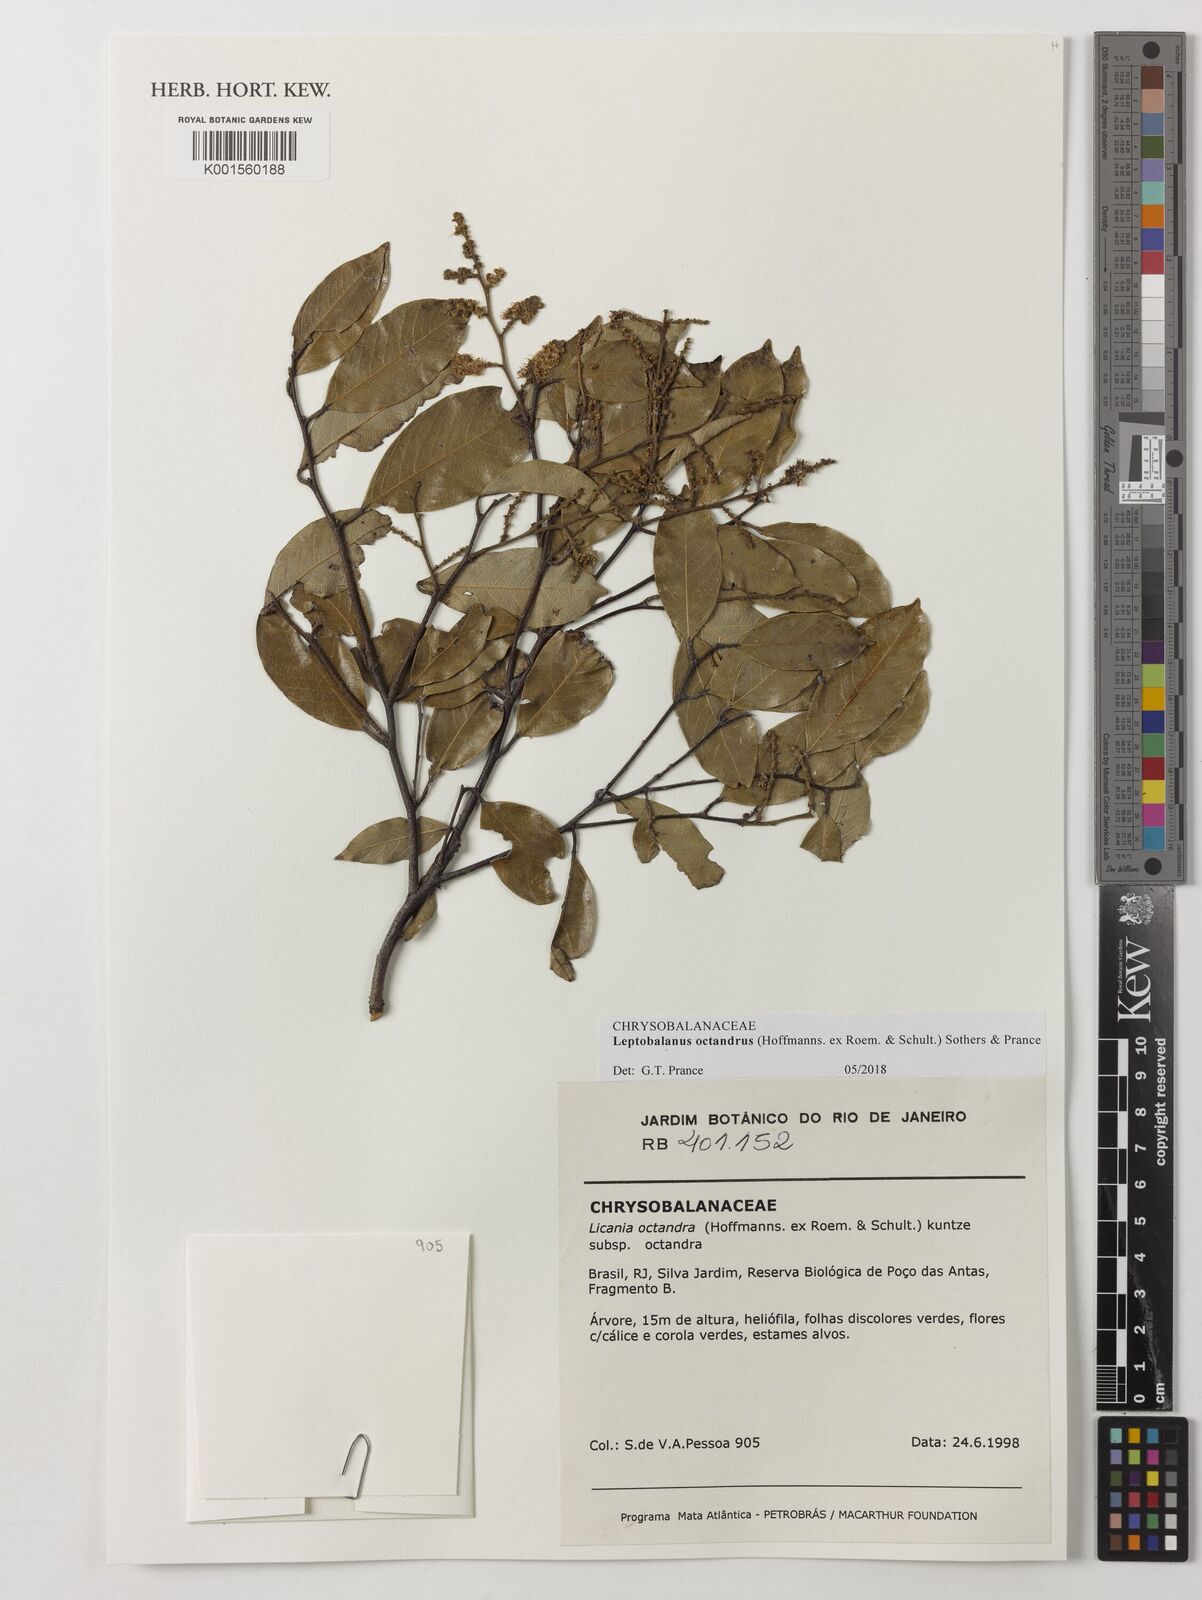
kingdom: Plantae
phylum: Tracheophyta
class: Magnoliopsida
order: Malpighiales
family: Chrysobalanaceae
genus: Leptobalanus
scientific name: Leptobalanus octandrus
